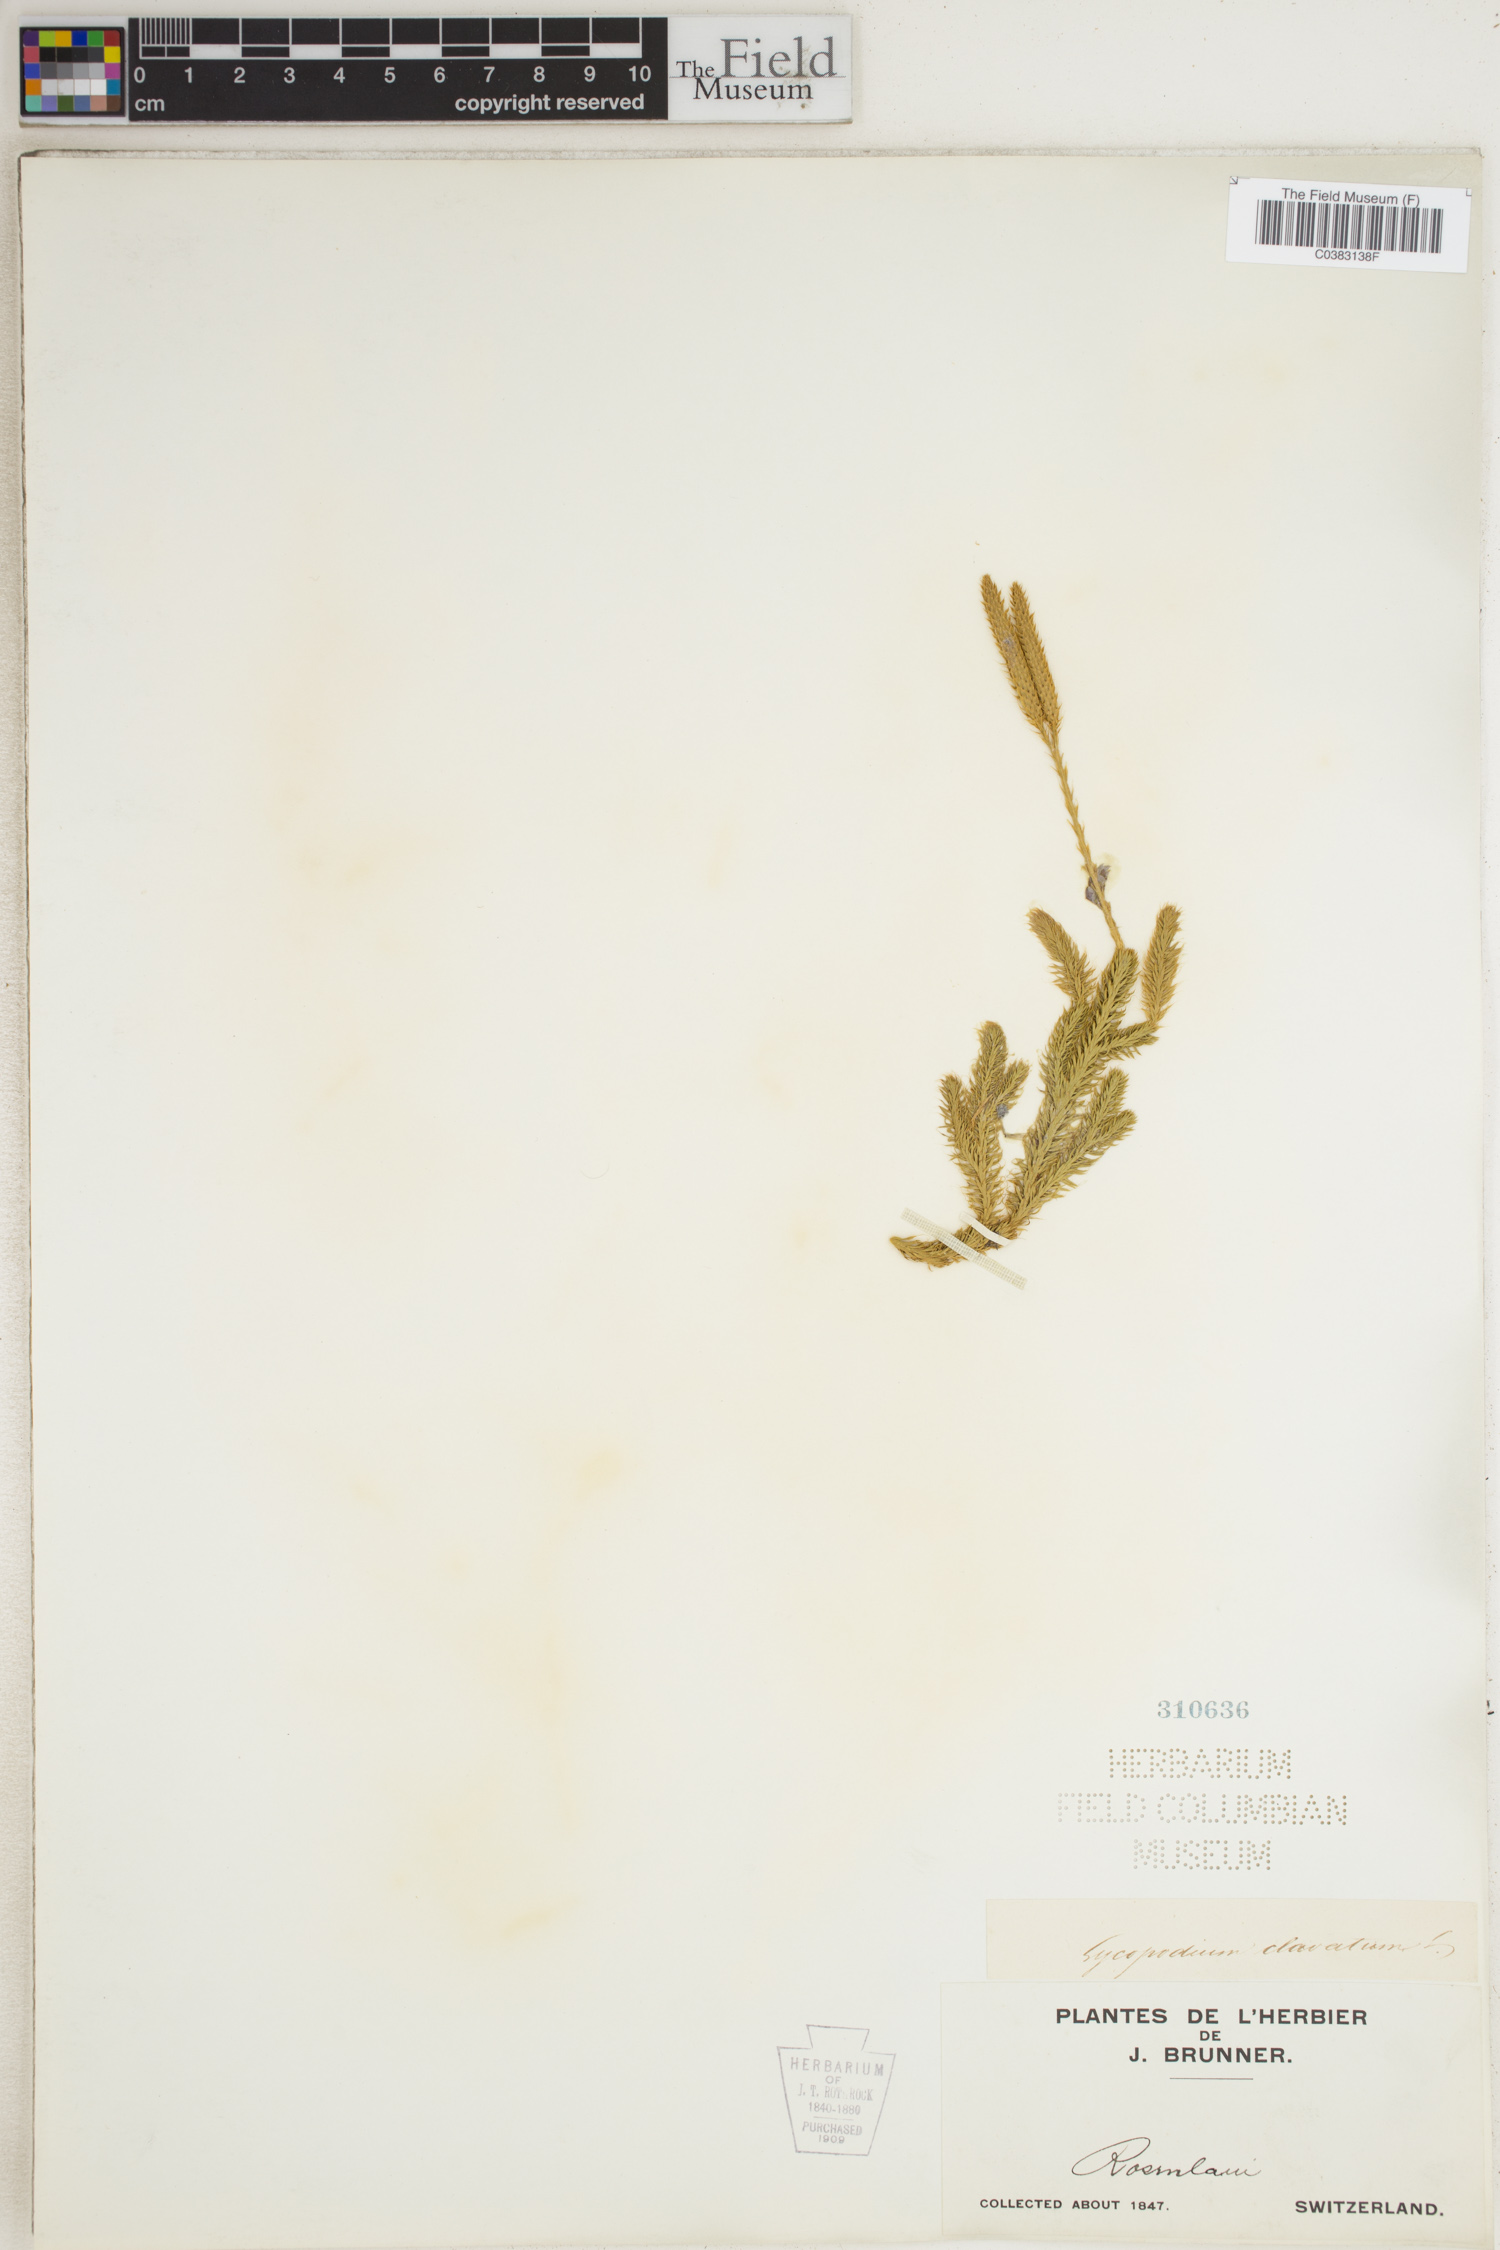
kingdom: Plantae
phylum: Tracheophyta
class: Lycopodiopsida
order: Lycopodiales
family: Lycopodiaceae
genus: Lycopodium
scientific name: Lycopodium clavatum
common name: Stag's-horn clubmoss
